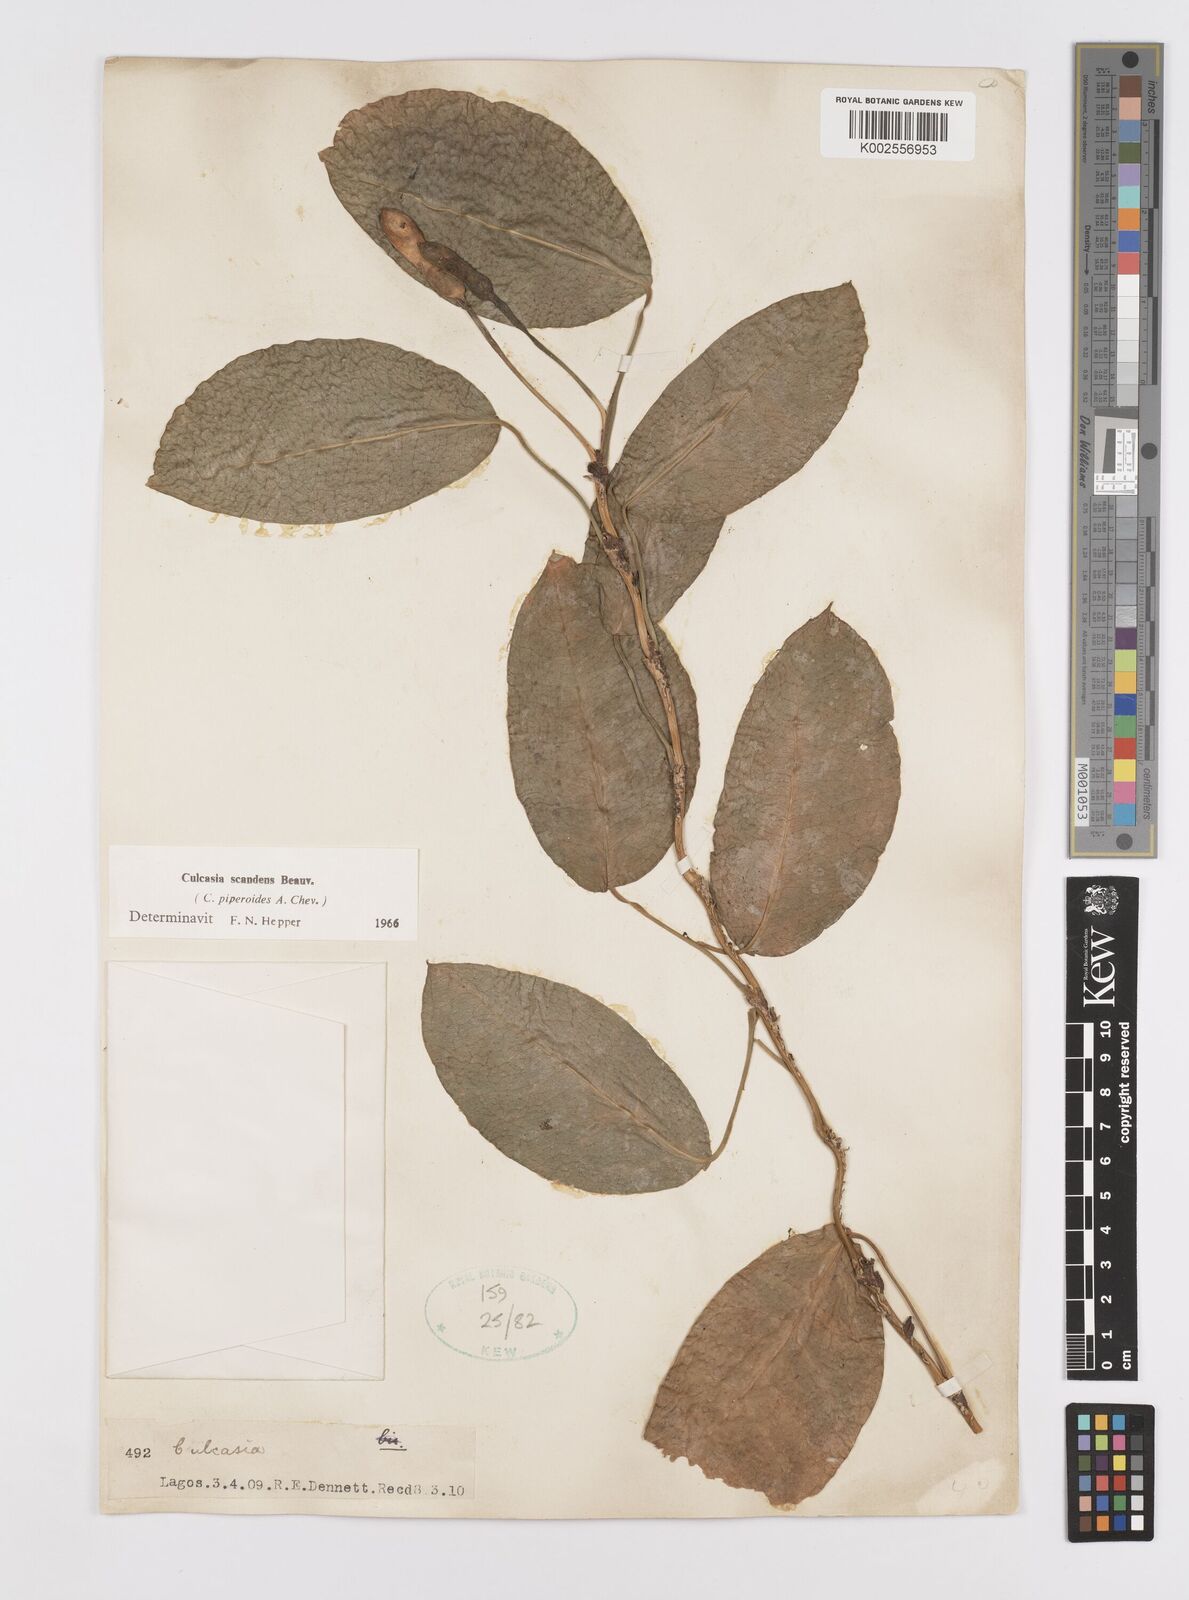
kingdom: Plantae
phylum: Tracheophyta
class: Liliopsida
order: Alismatales
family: Araceae
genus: Culcasia
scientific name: Culcasia scandens
